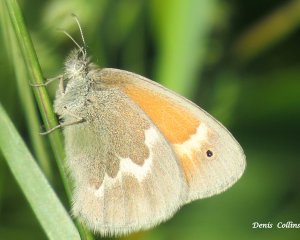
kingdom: Animalia
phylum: Arthropoda
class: Insecta
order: Lepidoptera
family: Nymphalidae
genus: Coenonympha
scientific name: Coenonympha tullia
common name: Large Heath
